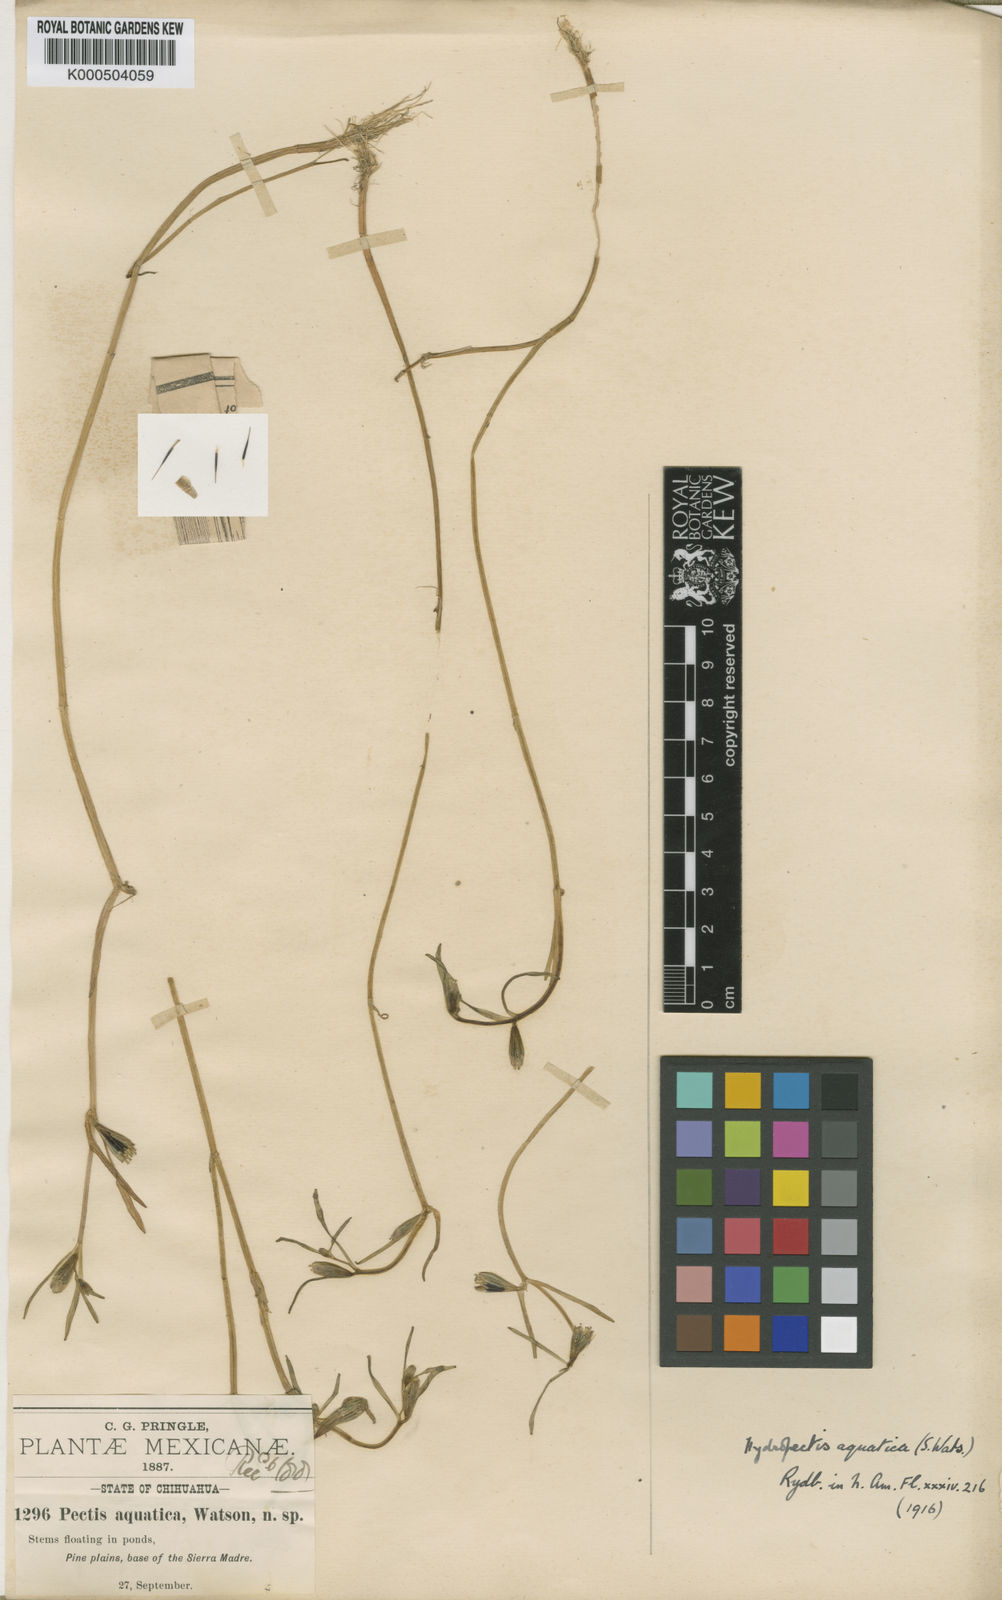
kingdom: Plantae
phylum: Tracheophyta
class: Magnoliopsida
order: Asterales
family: Asteraceae
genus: Hydropectis
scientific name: Hydropectis aquatica
